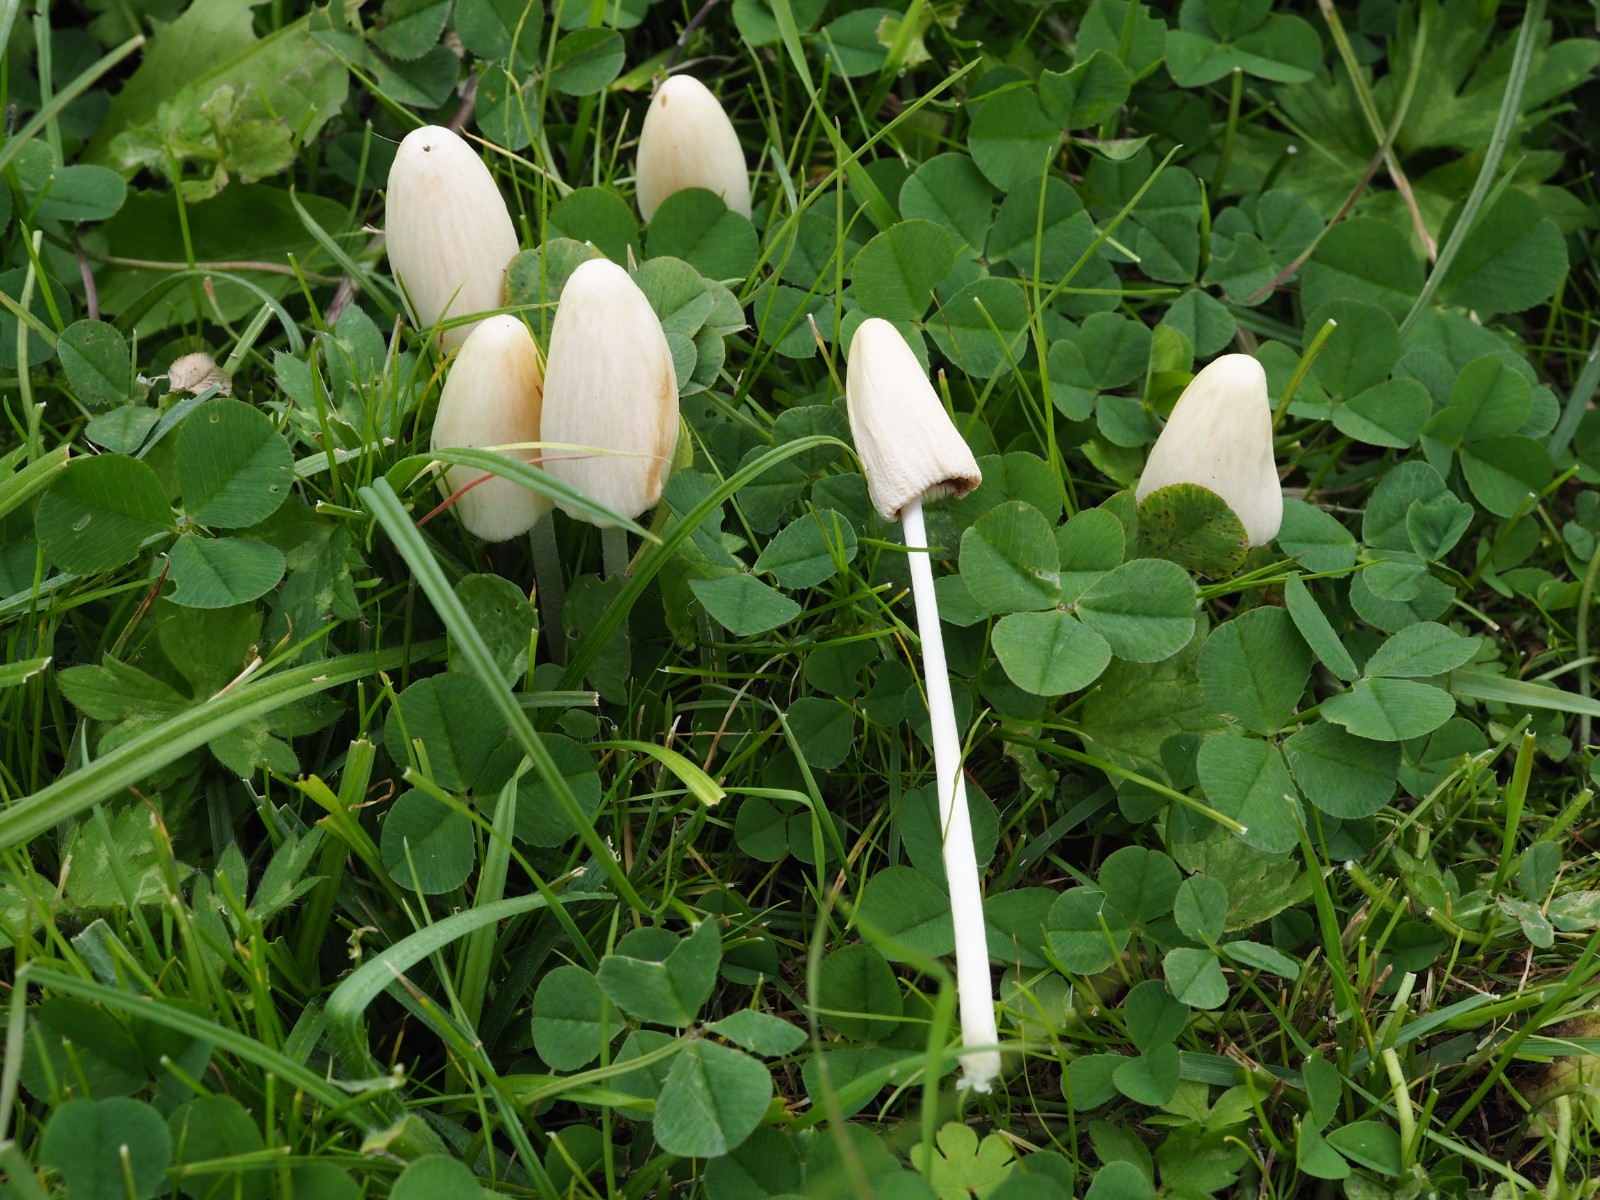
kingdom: Fungi
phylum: Basidiomycota
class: Agaricomycetes
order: Agaricales
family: Bolbitiaceae
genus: Conocybe
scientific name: Conocybe apala
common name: mælkehvid keglehat
